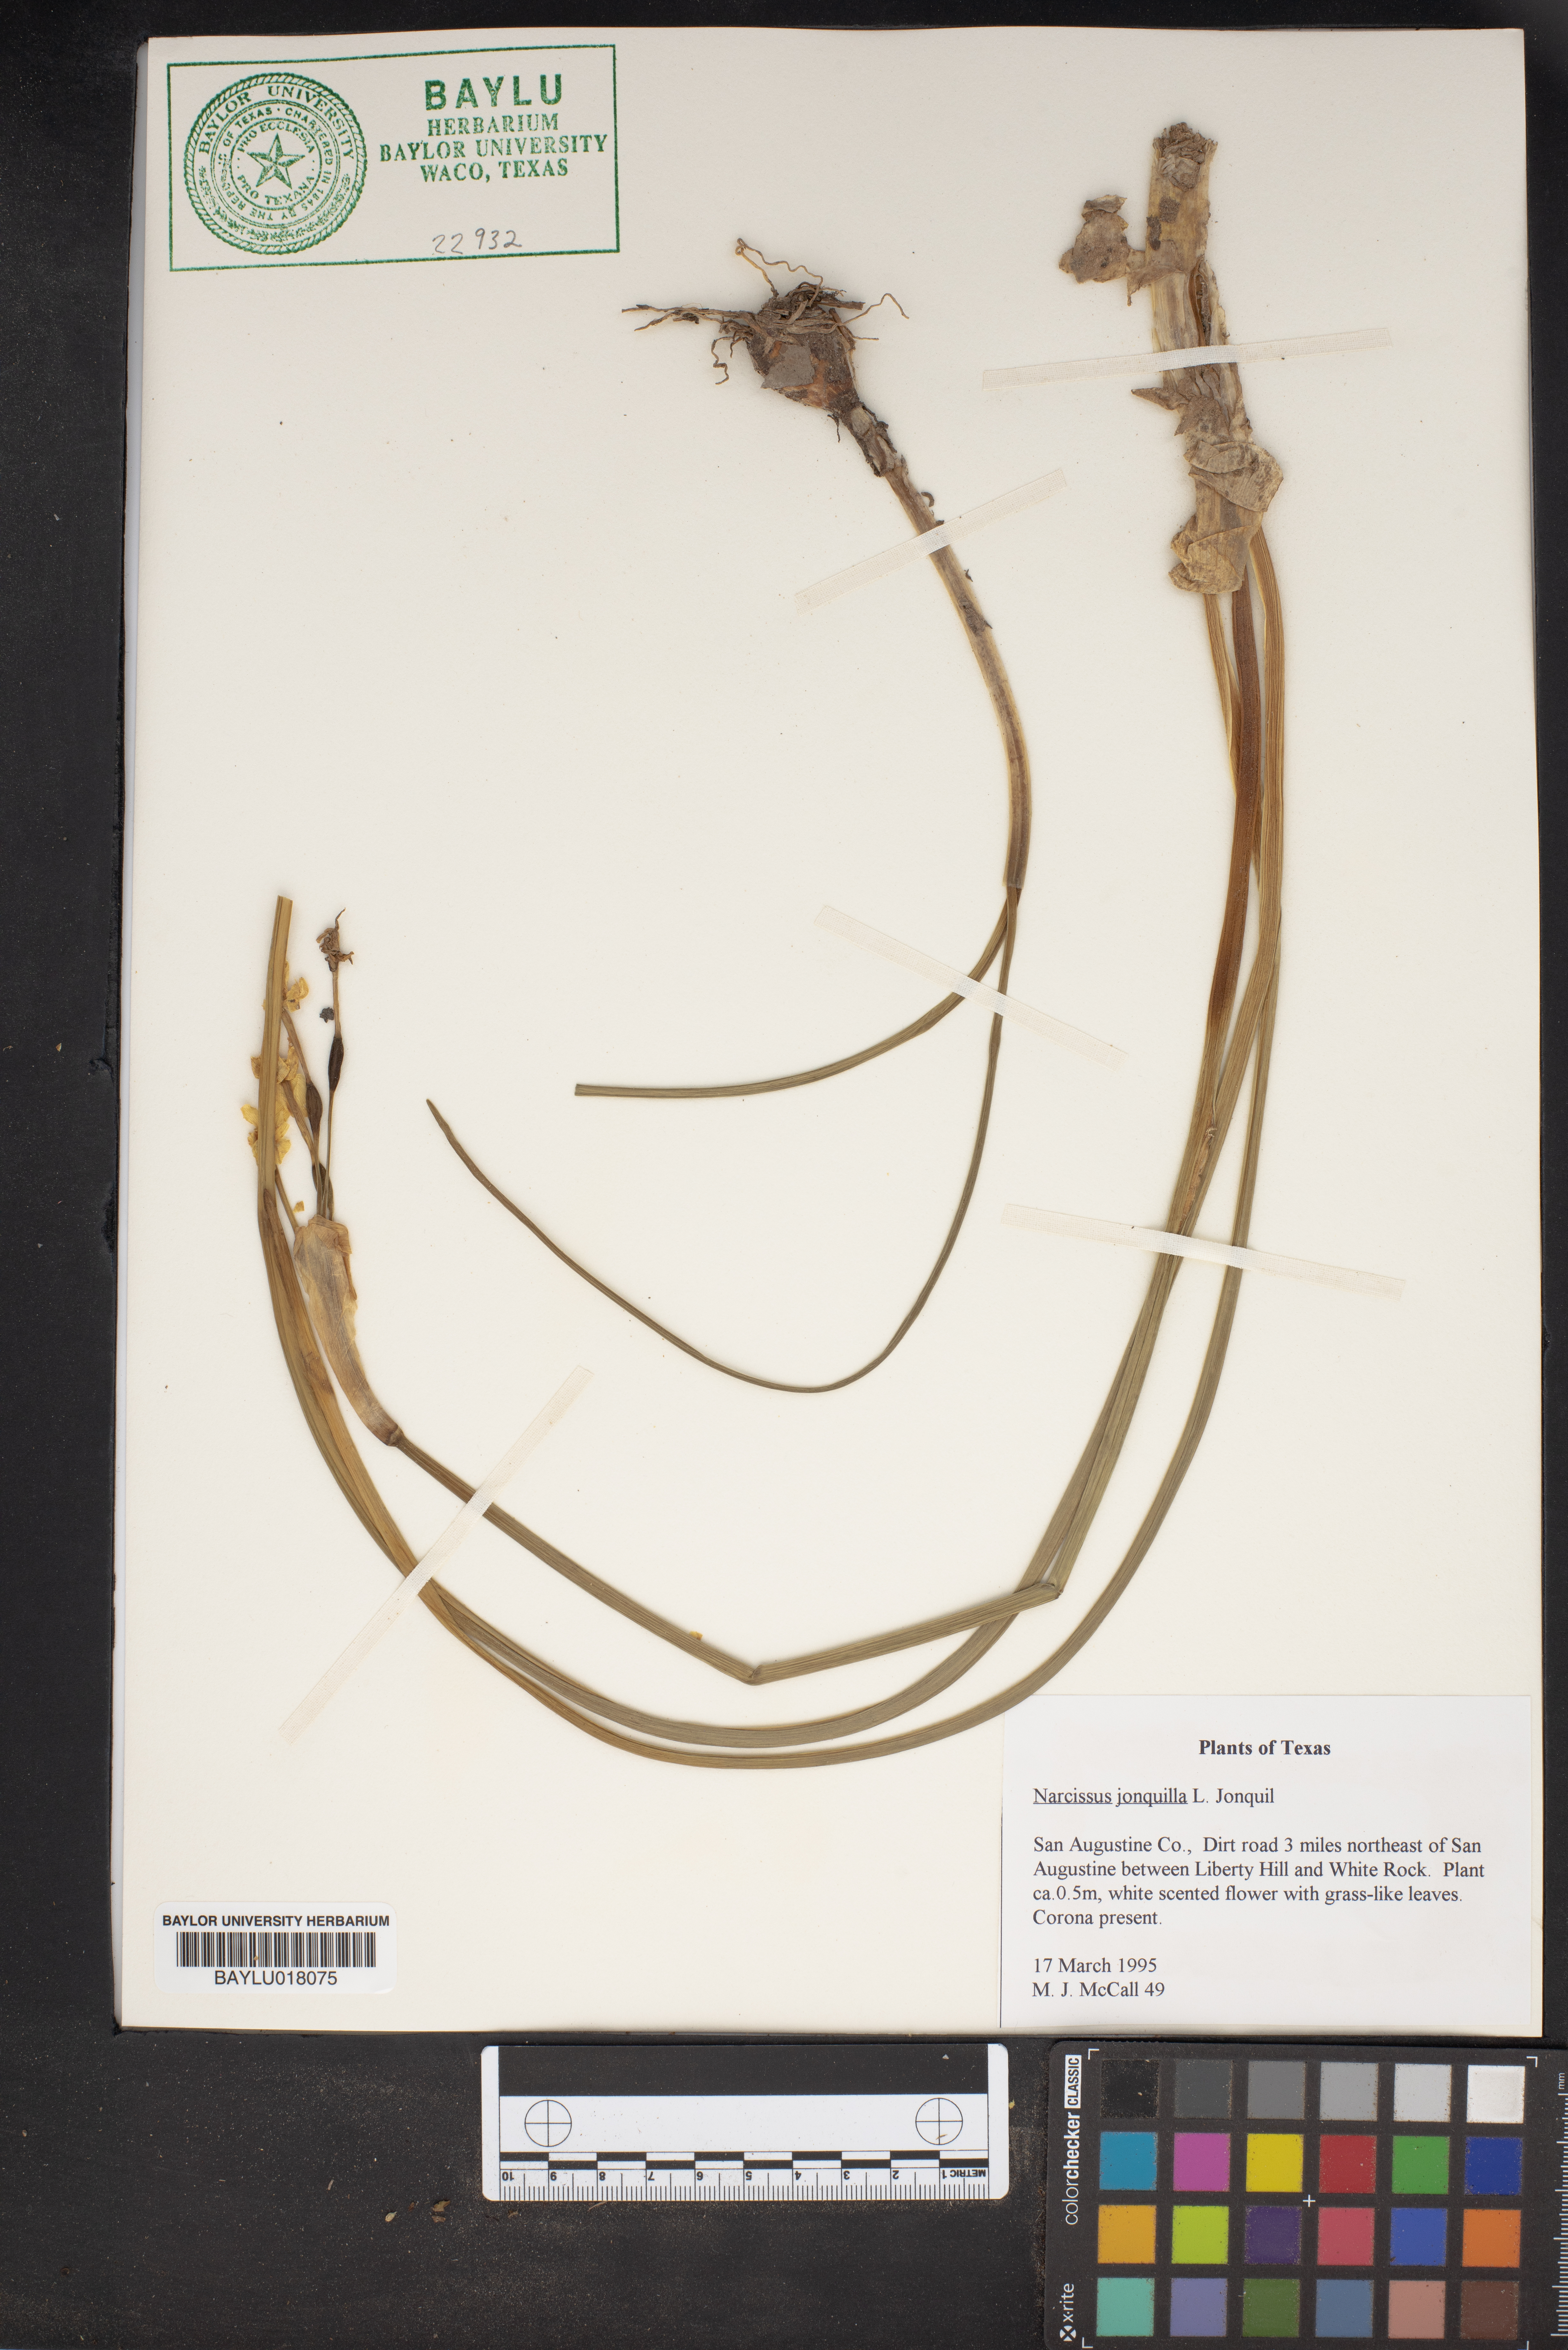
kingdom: Plantae
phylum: Tracheophyta
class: Liliopsida
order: Asparagales
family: Amaryllidaceae
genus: Narcissus
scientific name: Narcissus jonquilla
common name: Jonquil
